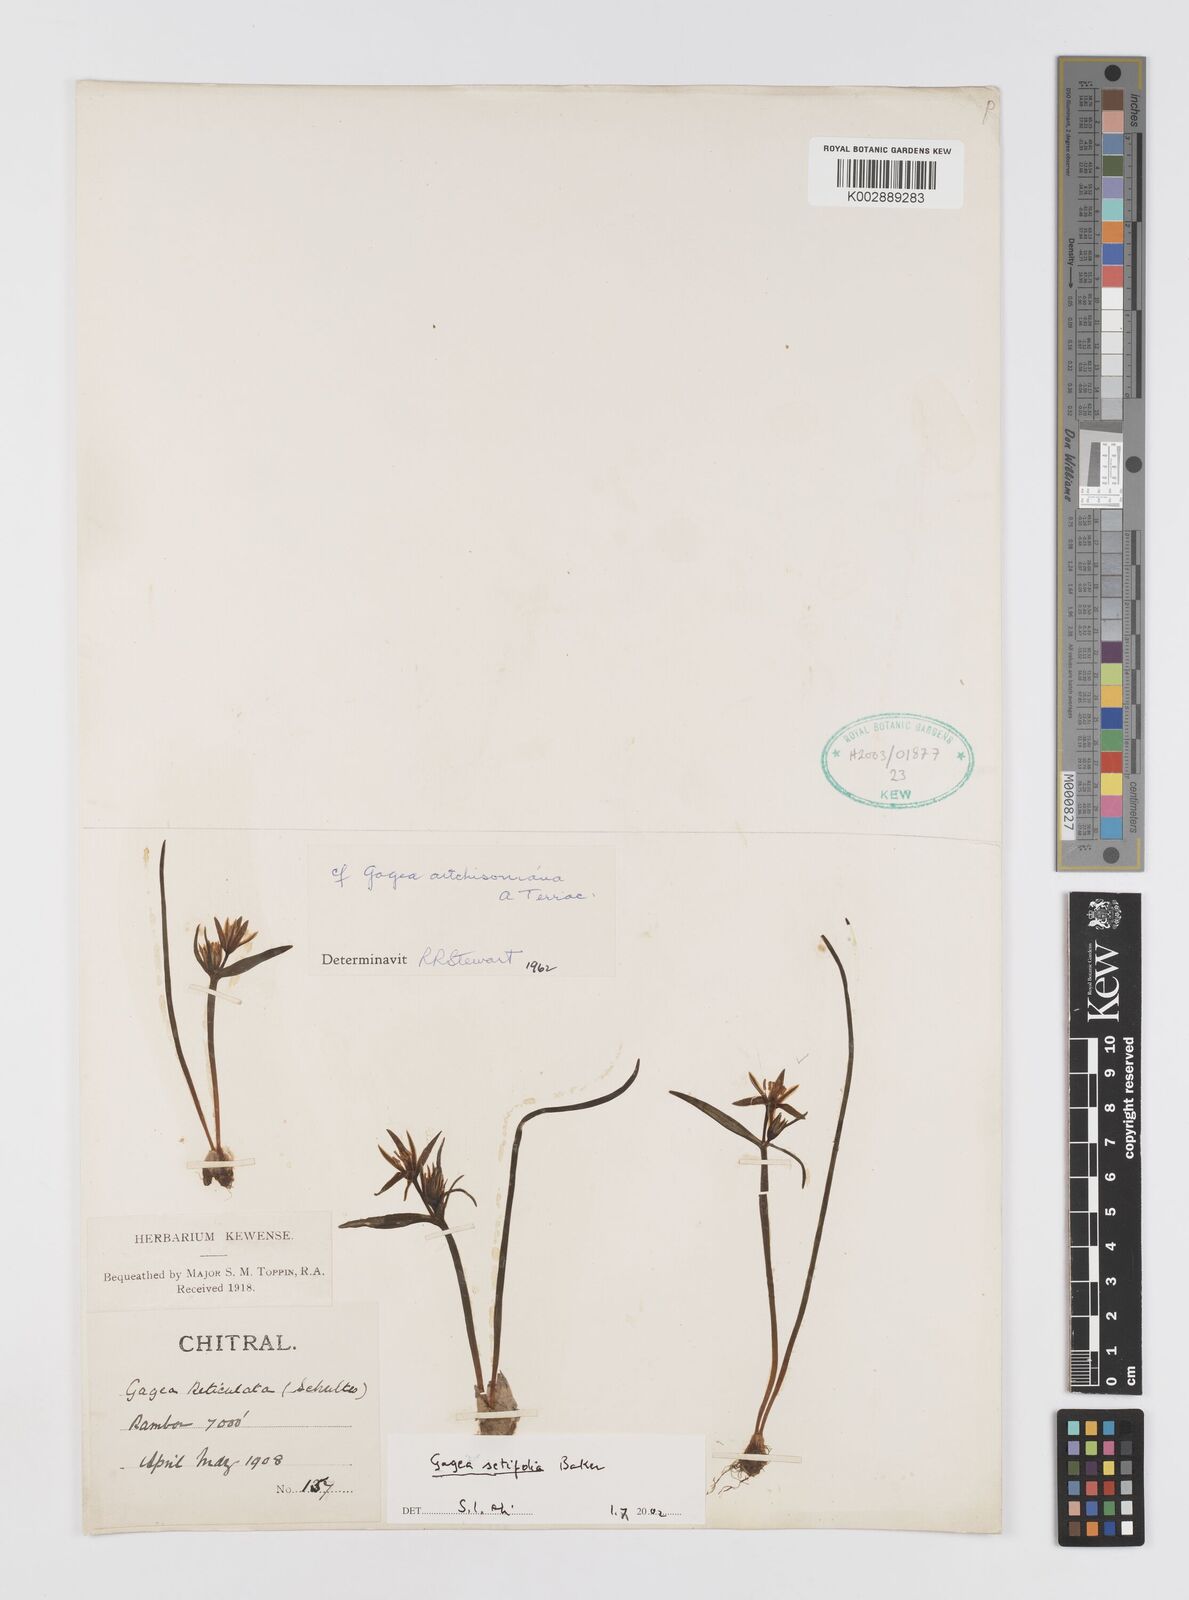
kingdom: Plantae
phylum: Tracheophyta
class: Liliopsida
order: Liliales
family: Liliaceae
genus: Gagea
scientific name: Gagea setifolia
